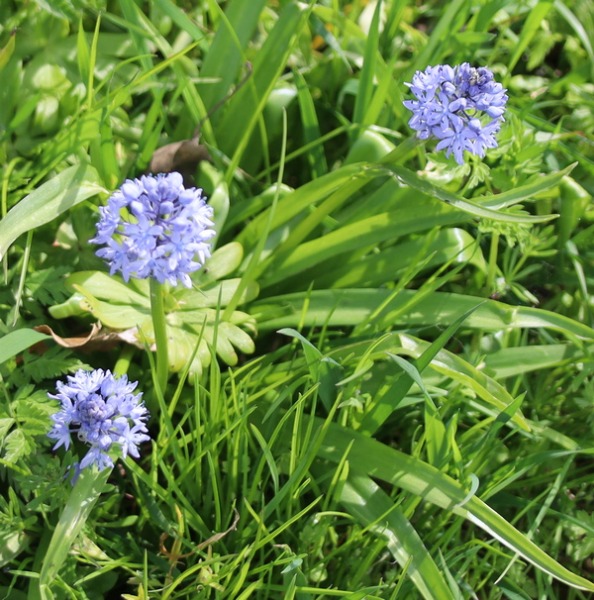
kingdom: Plantae
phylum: Tracheophyta
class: Liliopsida
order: Asparagales
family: Asparagaceae
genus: Hyacinthoides
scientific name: Hyacinthoides italica
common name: Italiensk skilla
